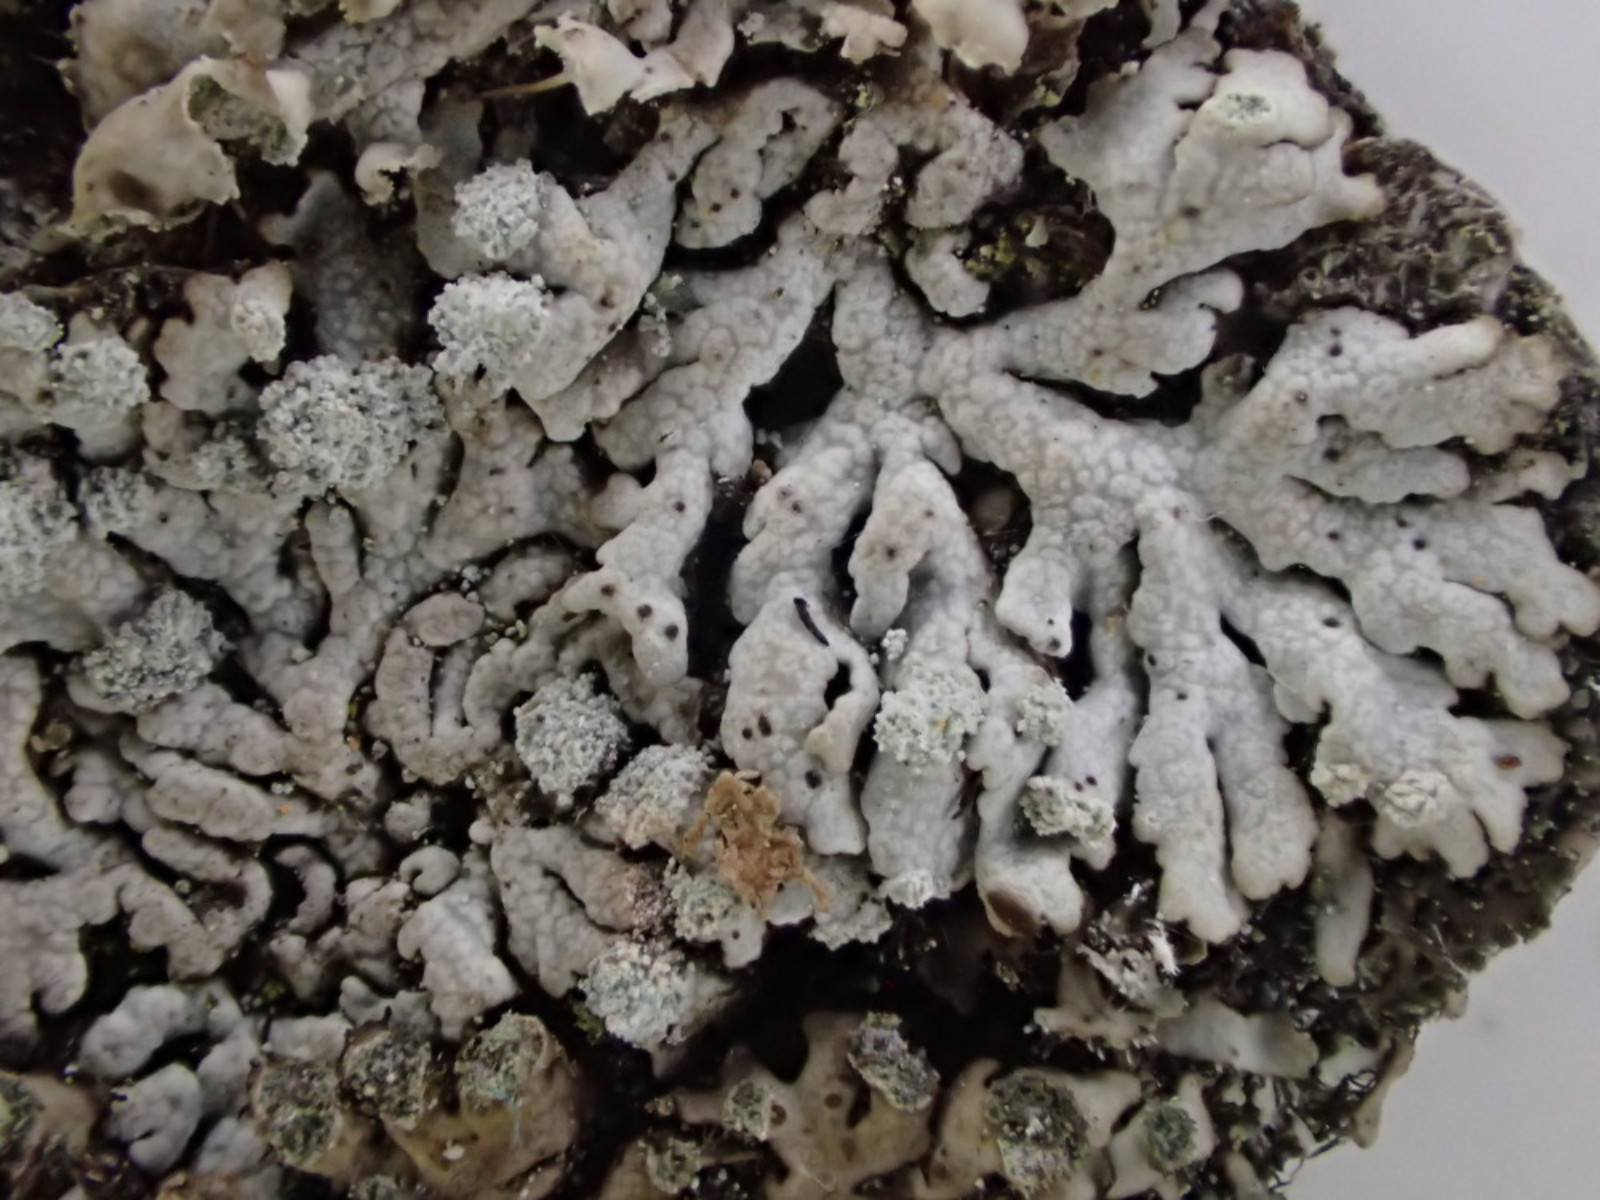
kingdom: Fungi
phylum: Ascomycota
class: Lecanoromycetes
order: Caliciales
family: Physciaceae
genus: Physcia
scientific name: Physcia caesia
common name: blågrå rosetlav
